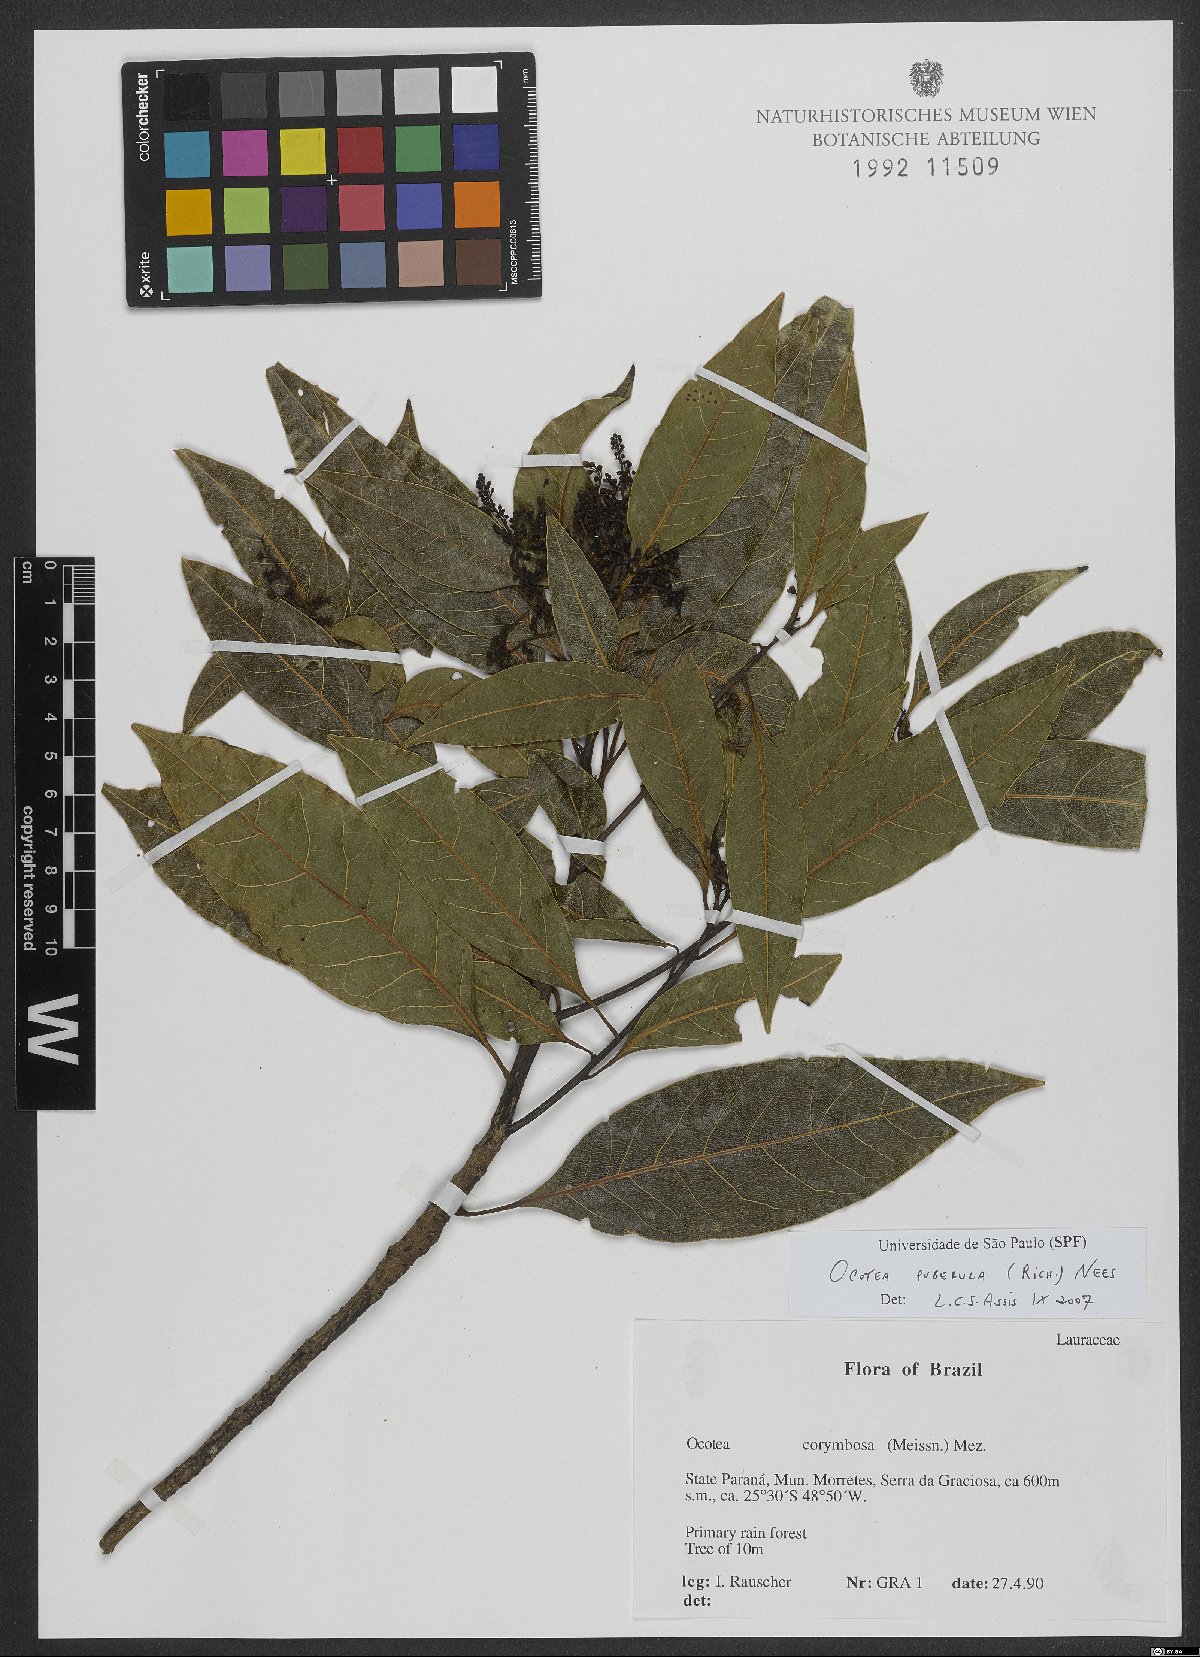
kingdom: Plantae
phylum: Tracheophyta
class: Magnoliopsida
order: Laurales
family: Lauraceae
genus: Ocotea
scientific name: Ocotea puberula
